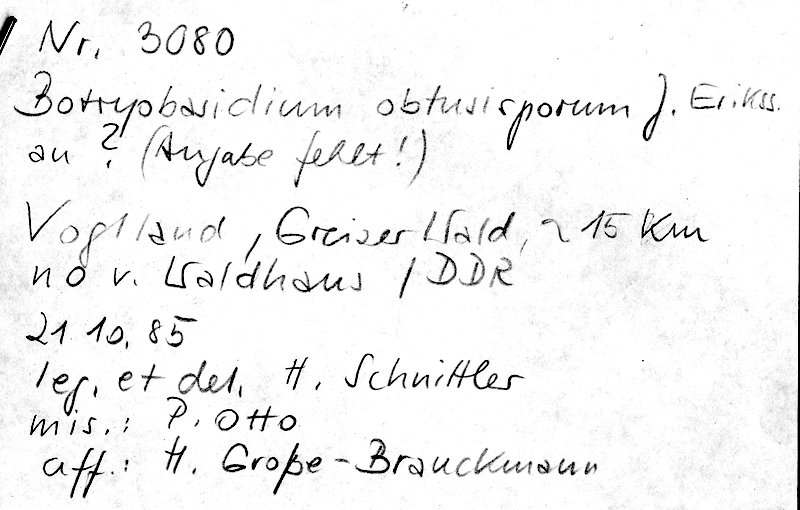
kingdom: Fungi
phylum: Basidiomycota
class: Agaricomycetes
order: Cantharellales
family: Botryobasidiaceae
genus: Botryobasidium
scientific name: Botryobasidium obtusisporum
